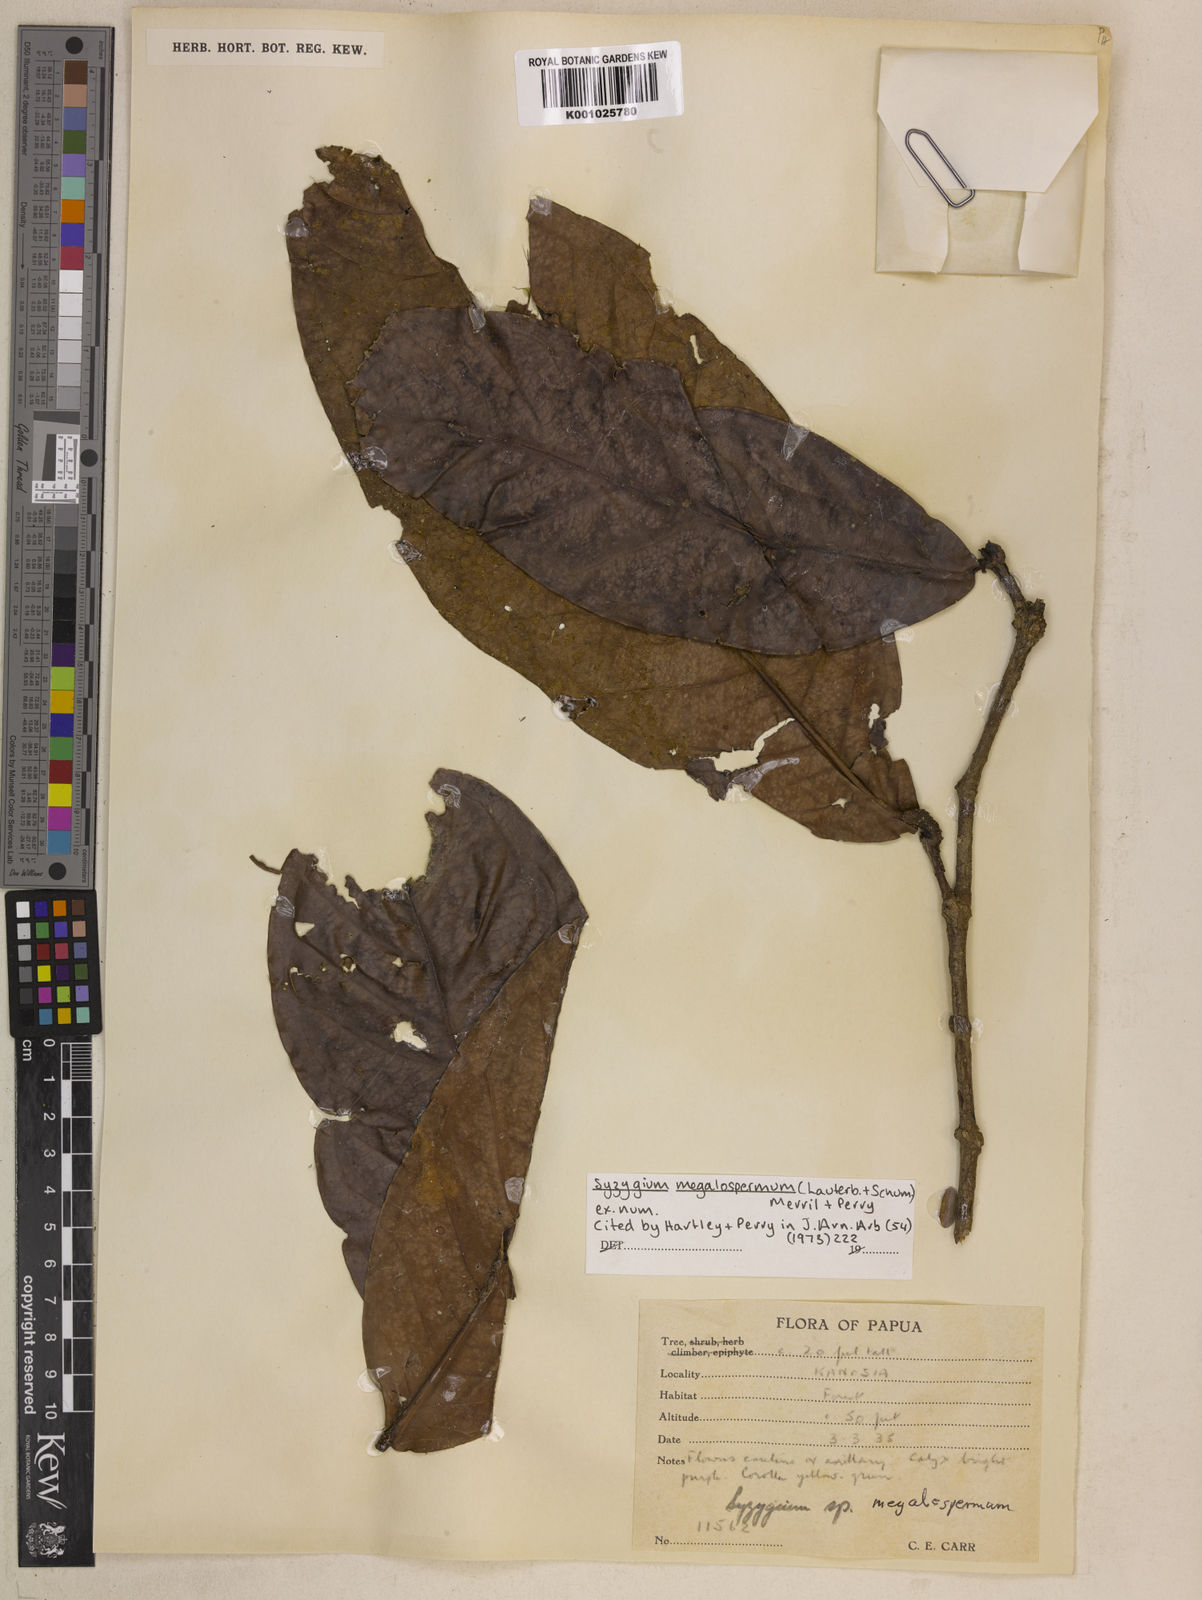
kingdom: Plantae
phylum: Tracheophyta
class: Magnoliopsida
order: Myrtales
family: Myrtaceae
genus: Syzygium
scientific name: Syzygium megalospermum
